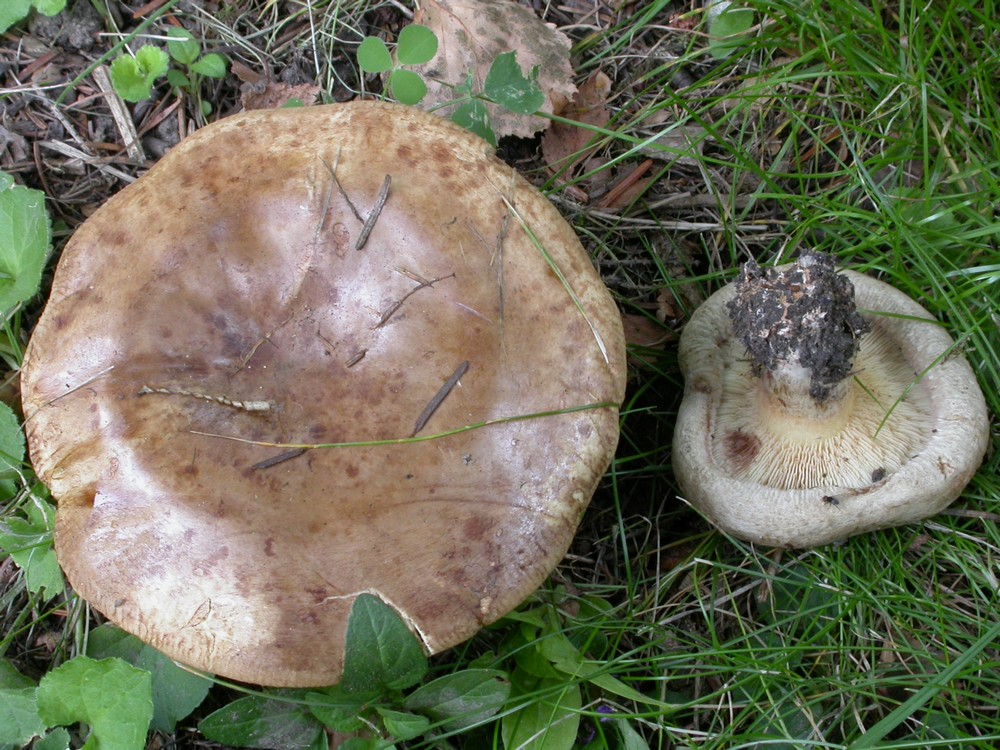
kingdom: Fungi
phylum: Basidiomycota
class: Agaricomycetes
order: Boletales
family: Paxillaceae
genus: Paxillus
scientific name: Paxillus obscurisporus
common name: mahognisporet netbladhat
